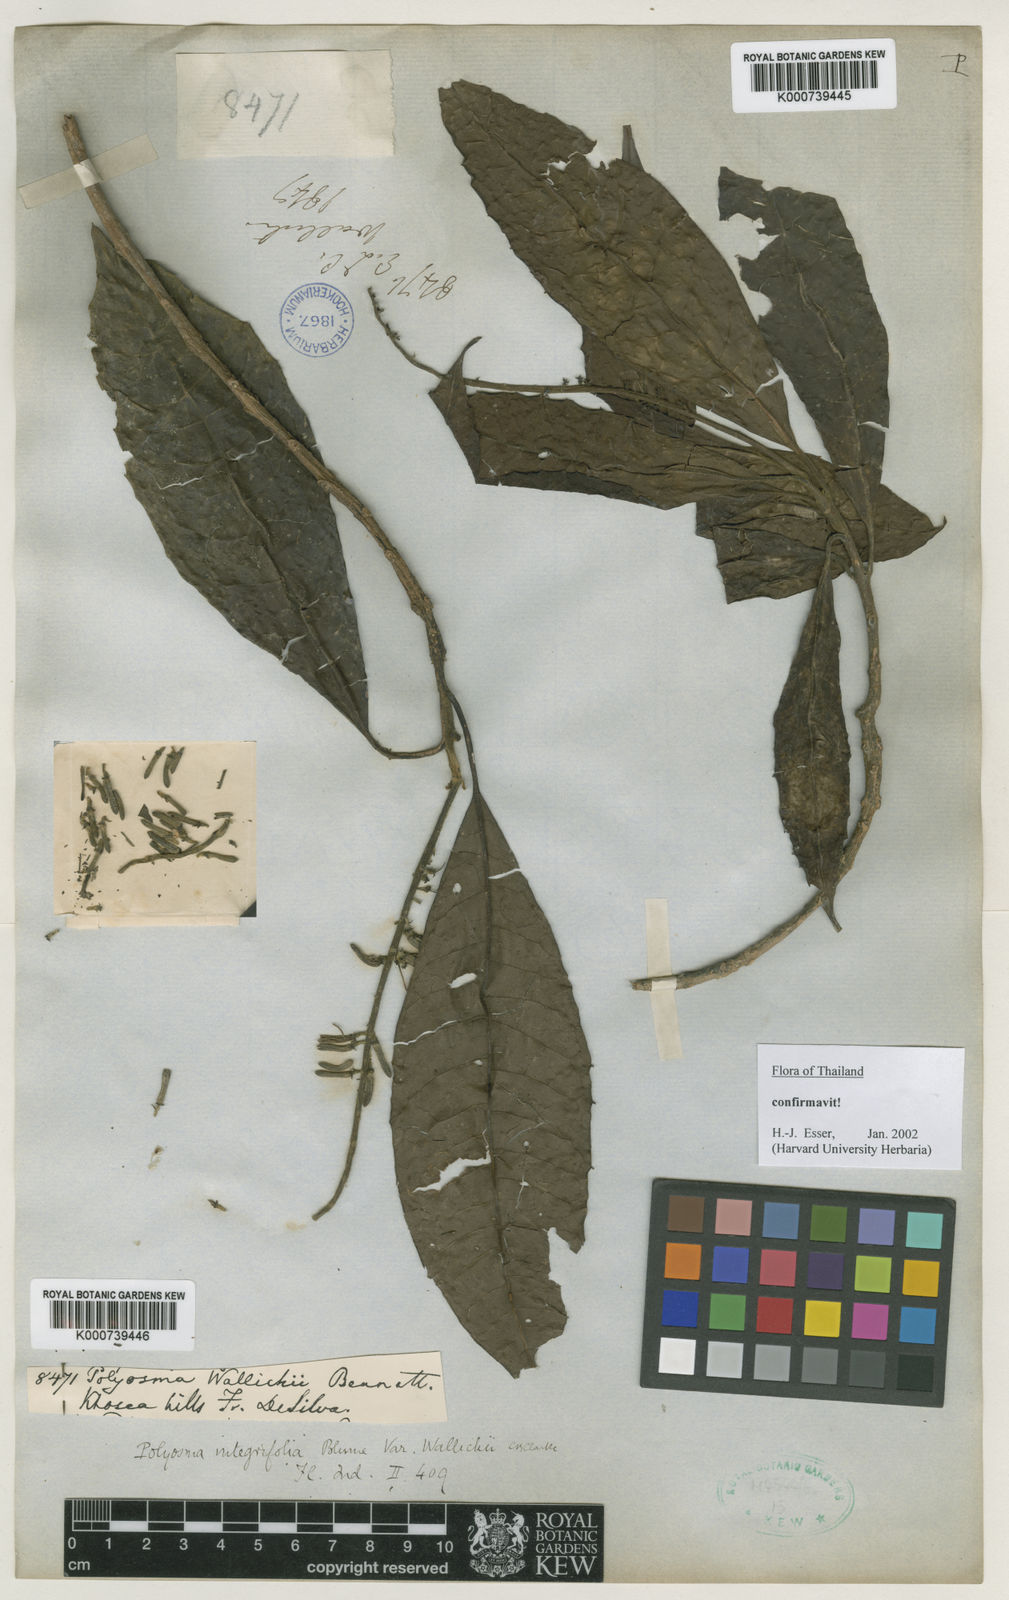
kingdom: Plantae
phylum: Tracheophyta
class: Magnoliopsida
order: Escalloniales
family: Escalloniaceae
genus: Polyosma
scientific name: Polyosma integrifolia
